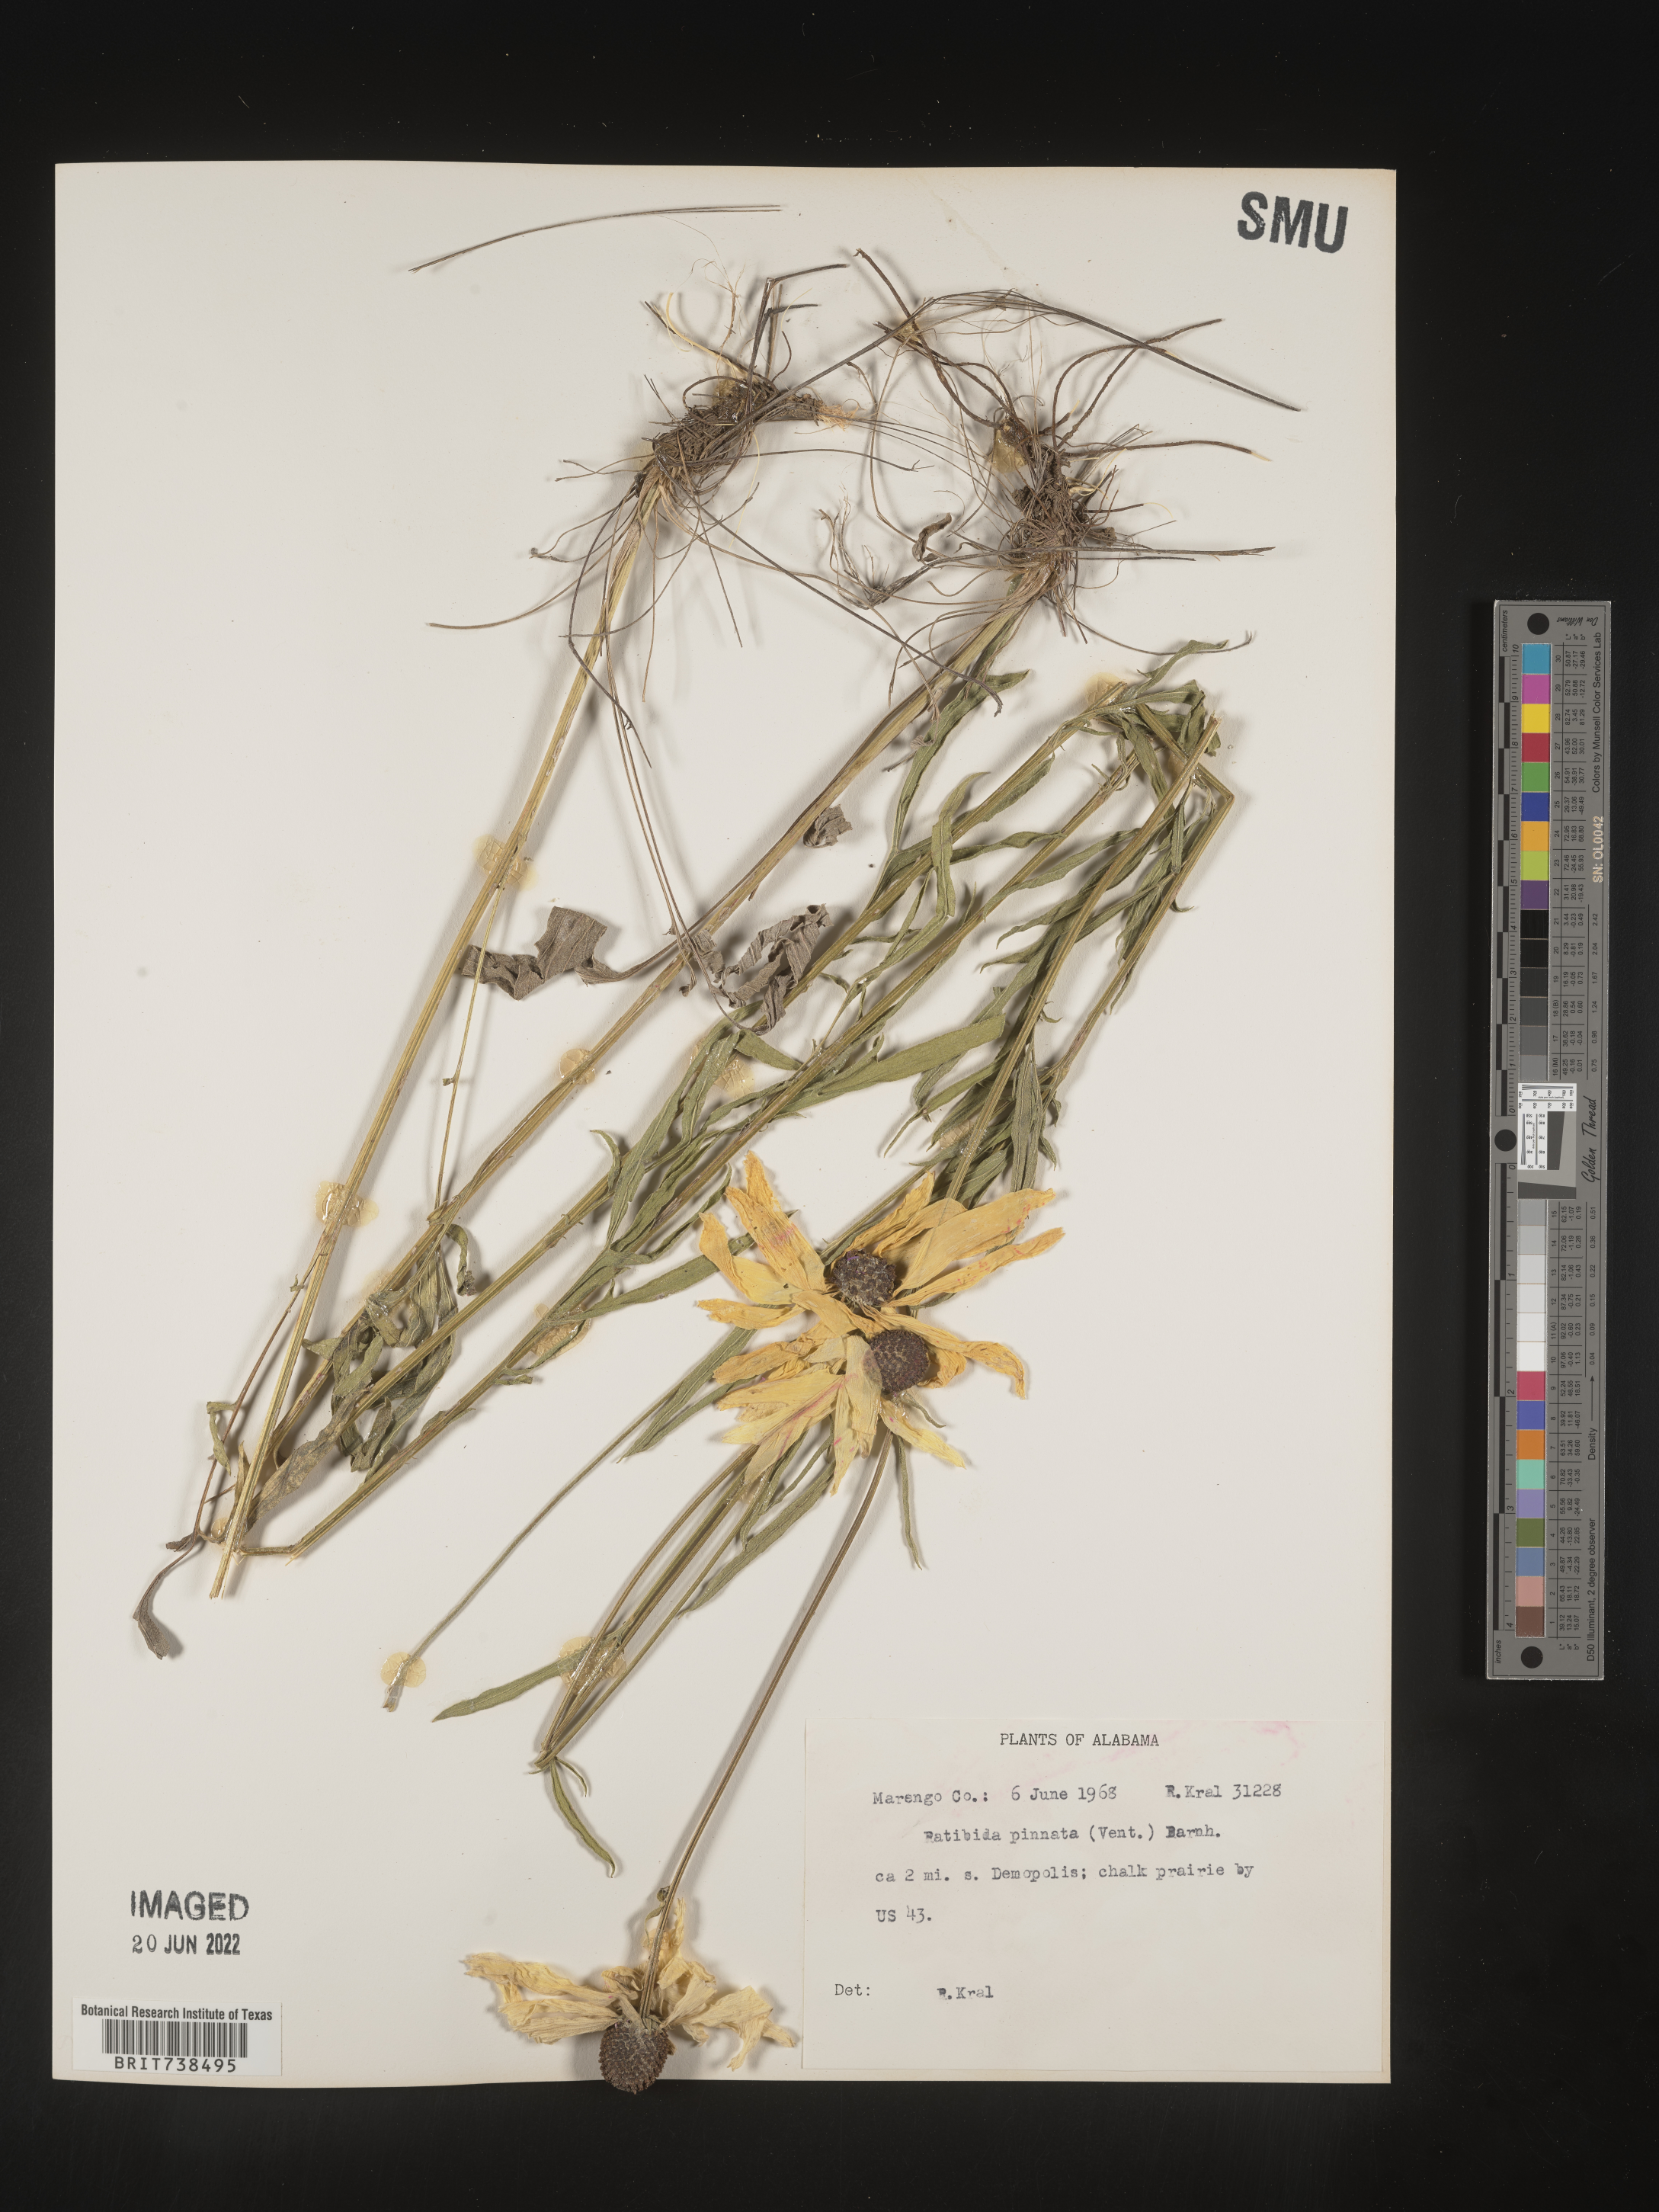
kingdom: Plantae
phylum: Tracheophyta
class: Magnoliopsida
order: Asterales
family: Asteraceae
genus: Ratibida
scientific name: Ratibida pinnata
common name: Drooping prairie-coneflower
